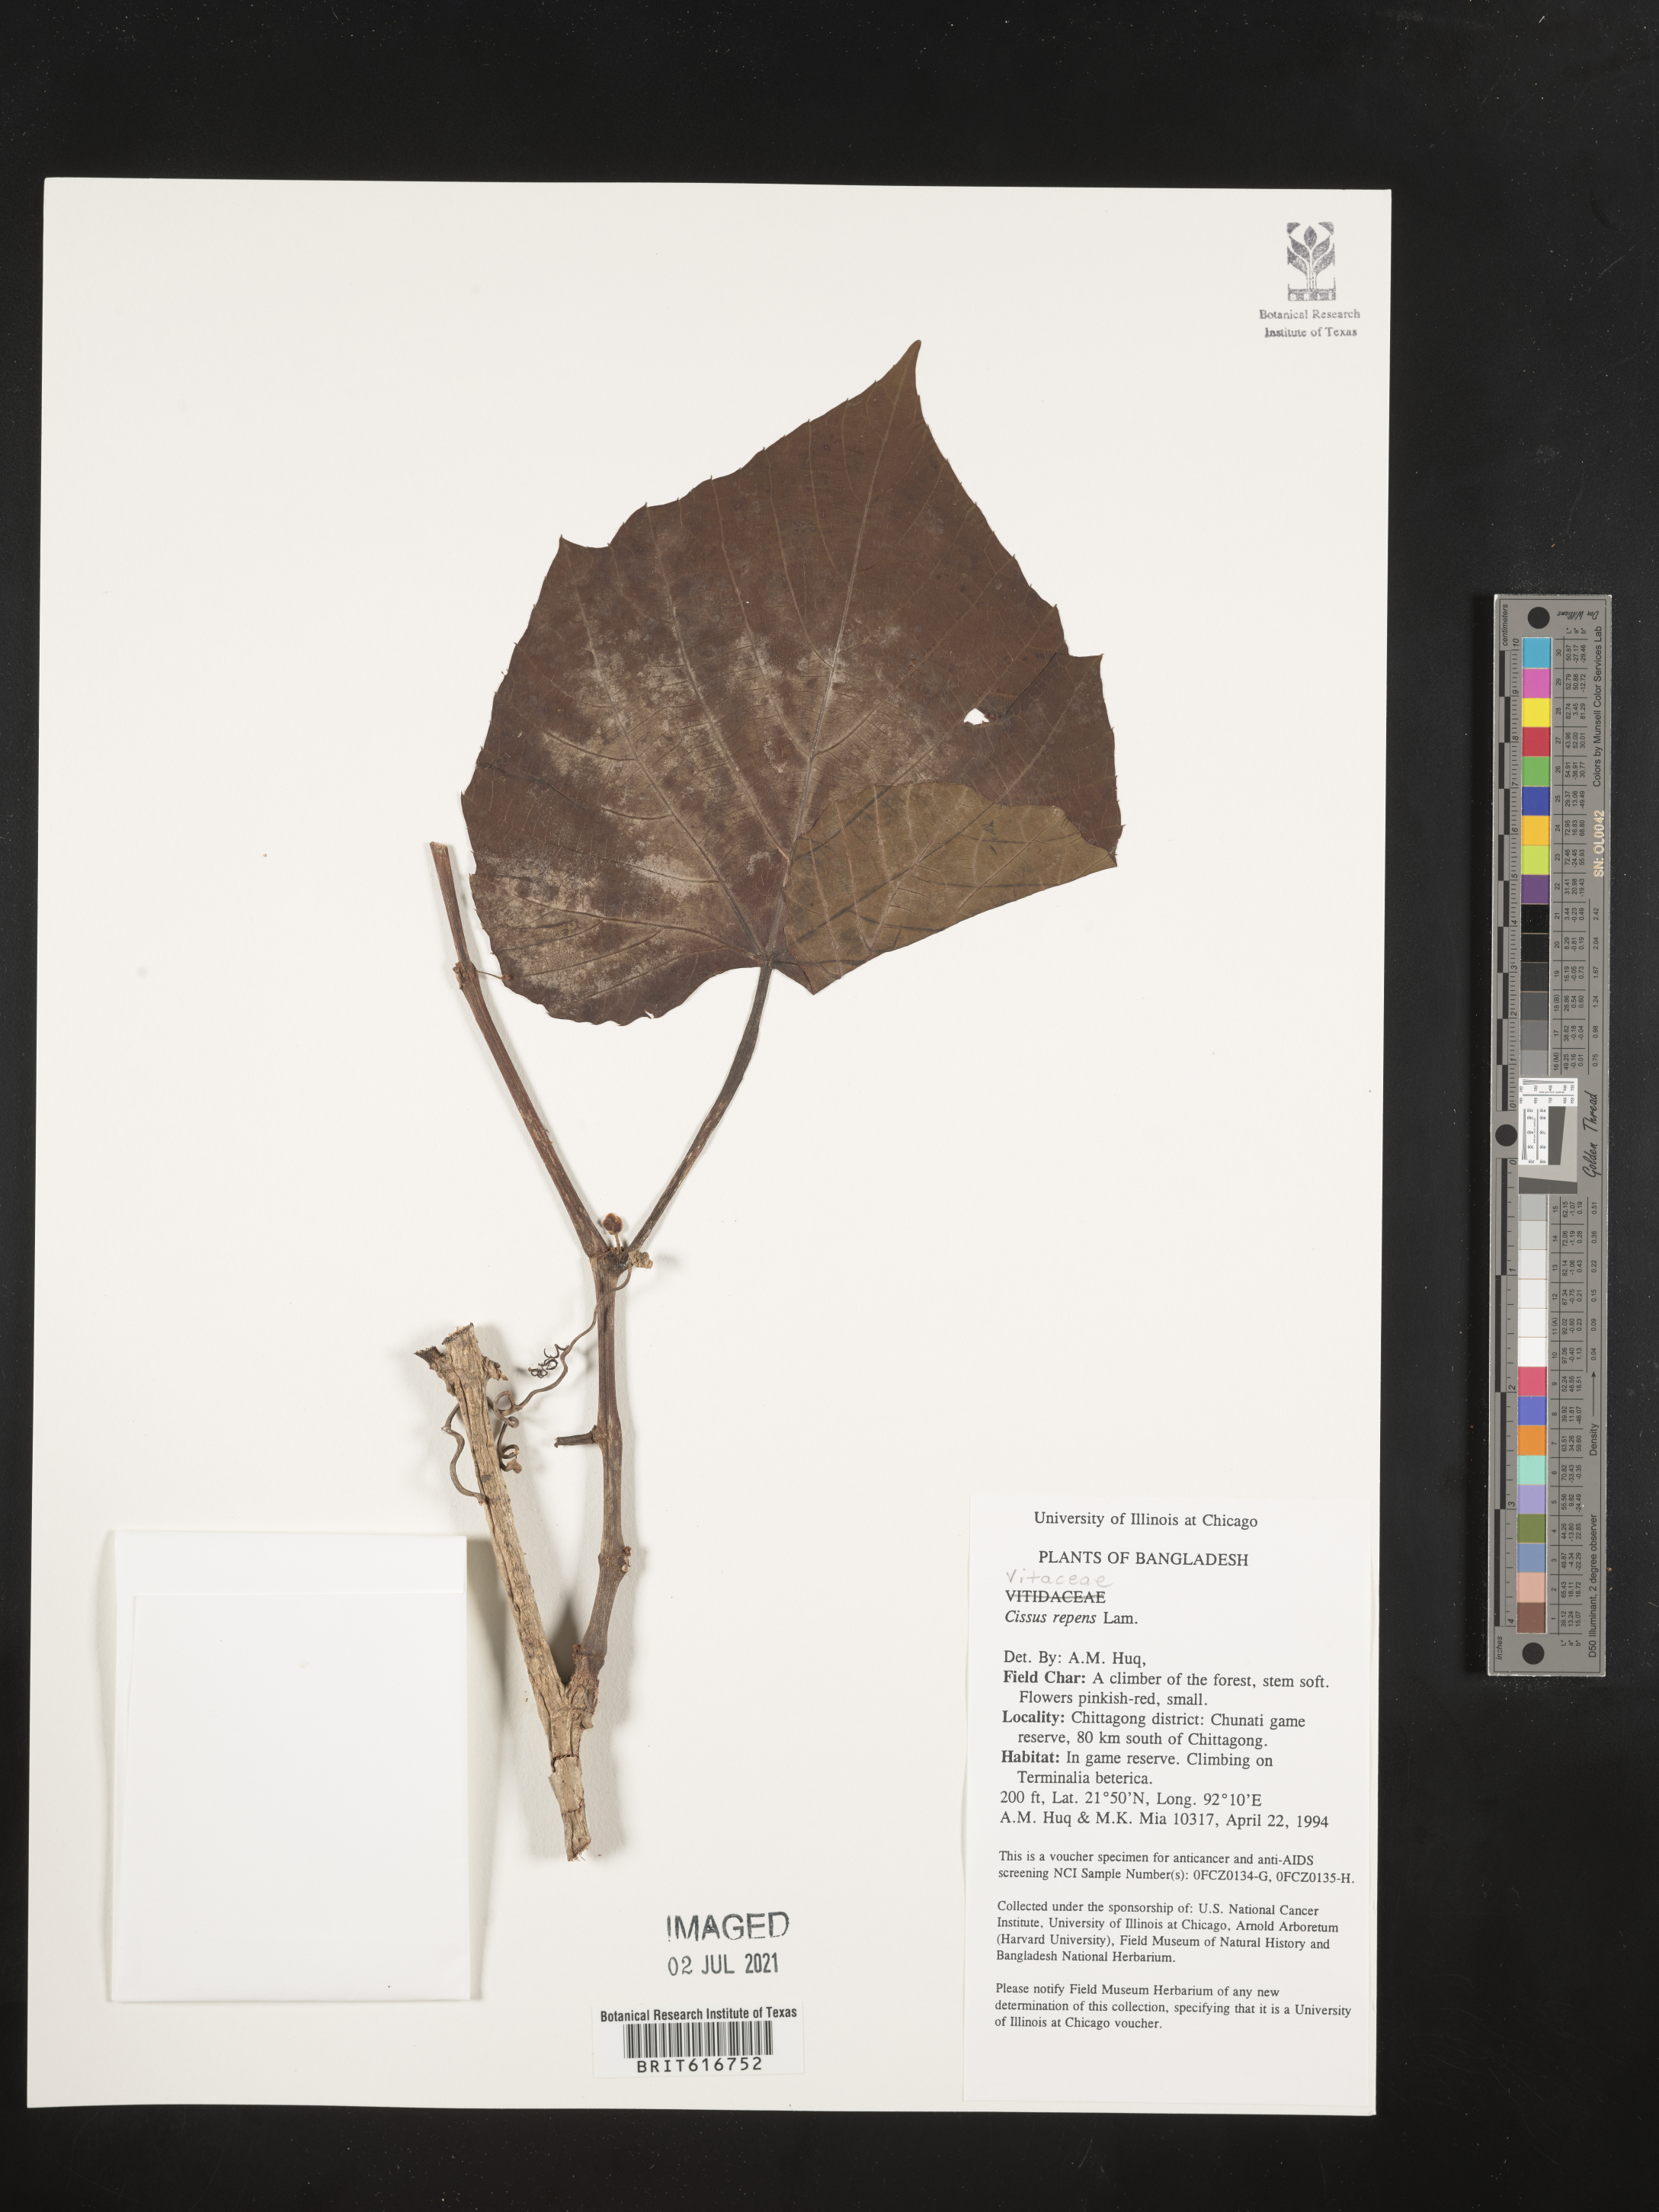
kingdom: Plantae
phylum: Tracheophyta
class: Magnoliopsida
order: Vitales
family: Vitaceae
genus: Cissus
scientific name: Cissus repens
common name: Cissus
